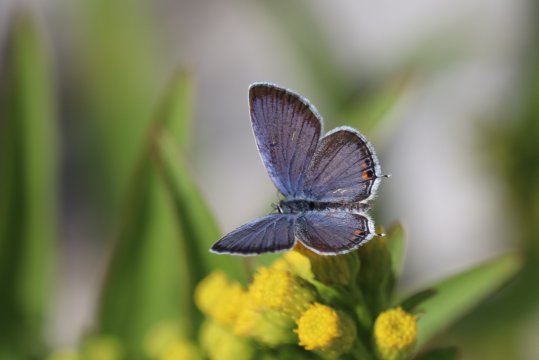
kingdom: Animalia
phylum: Arthropoda
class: Insecta
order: Lepidoptera
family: Lycaenidae
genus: Elkalyce
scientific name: Elkalyce comyntas
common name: Eastern Tailed-Blue
